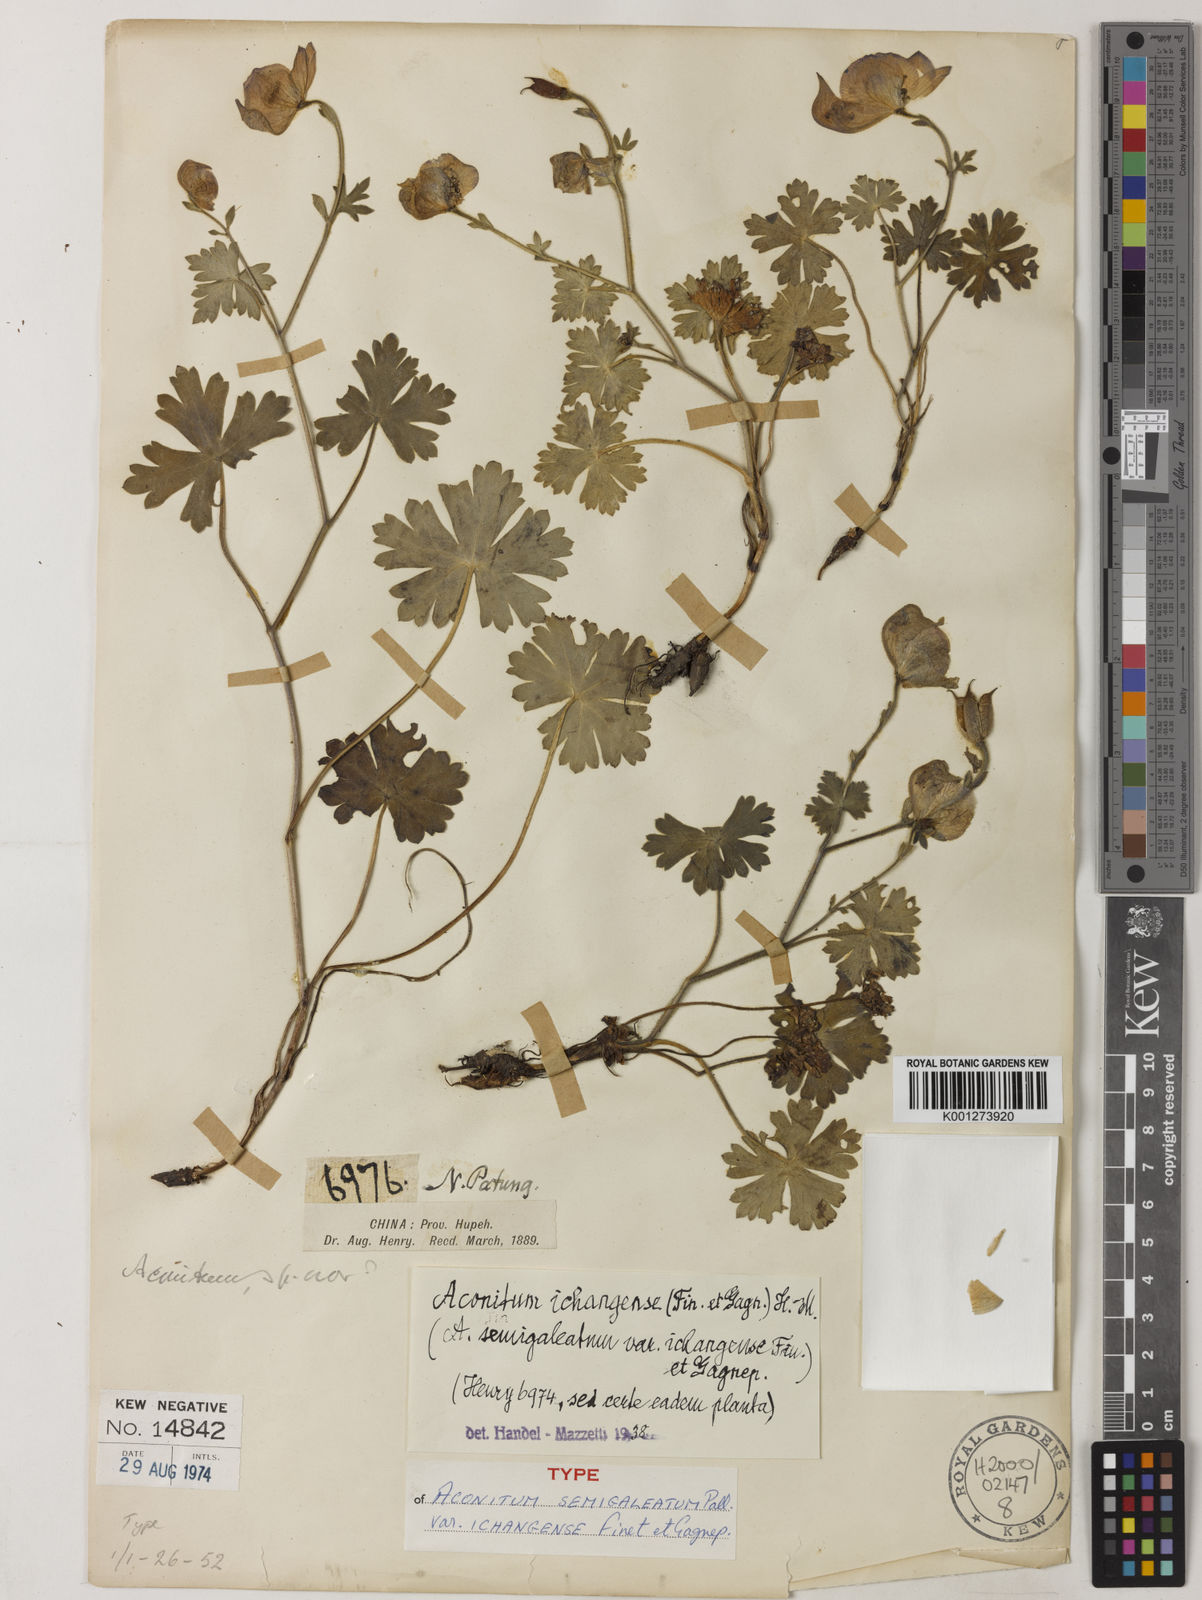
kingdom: Plantae
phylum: Tracheophyta
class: Magnoliopsida
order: Ranunculales
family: Ranunculaceae
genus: Aconitum
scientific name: Aconitum ichangense
